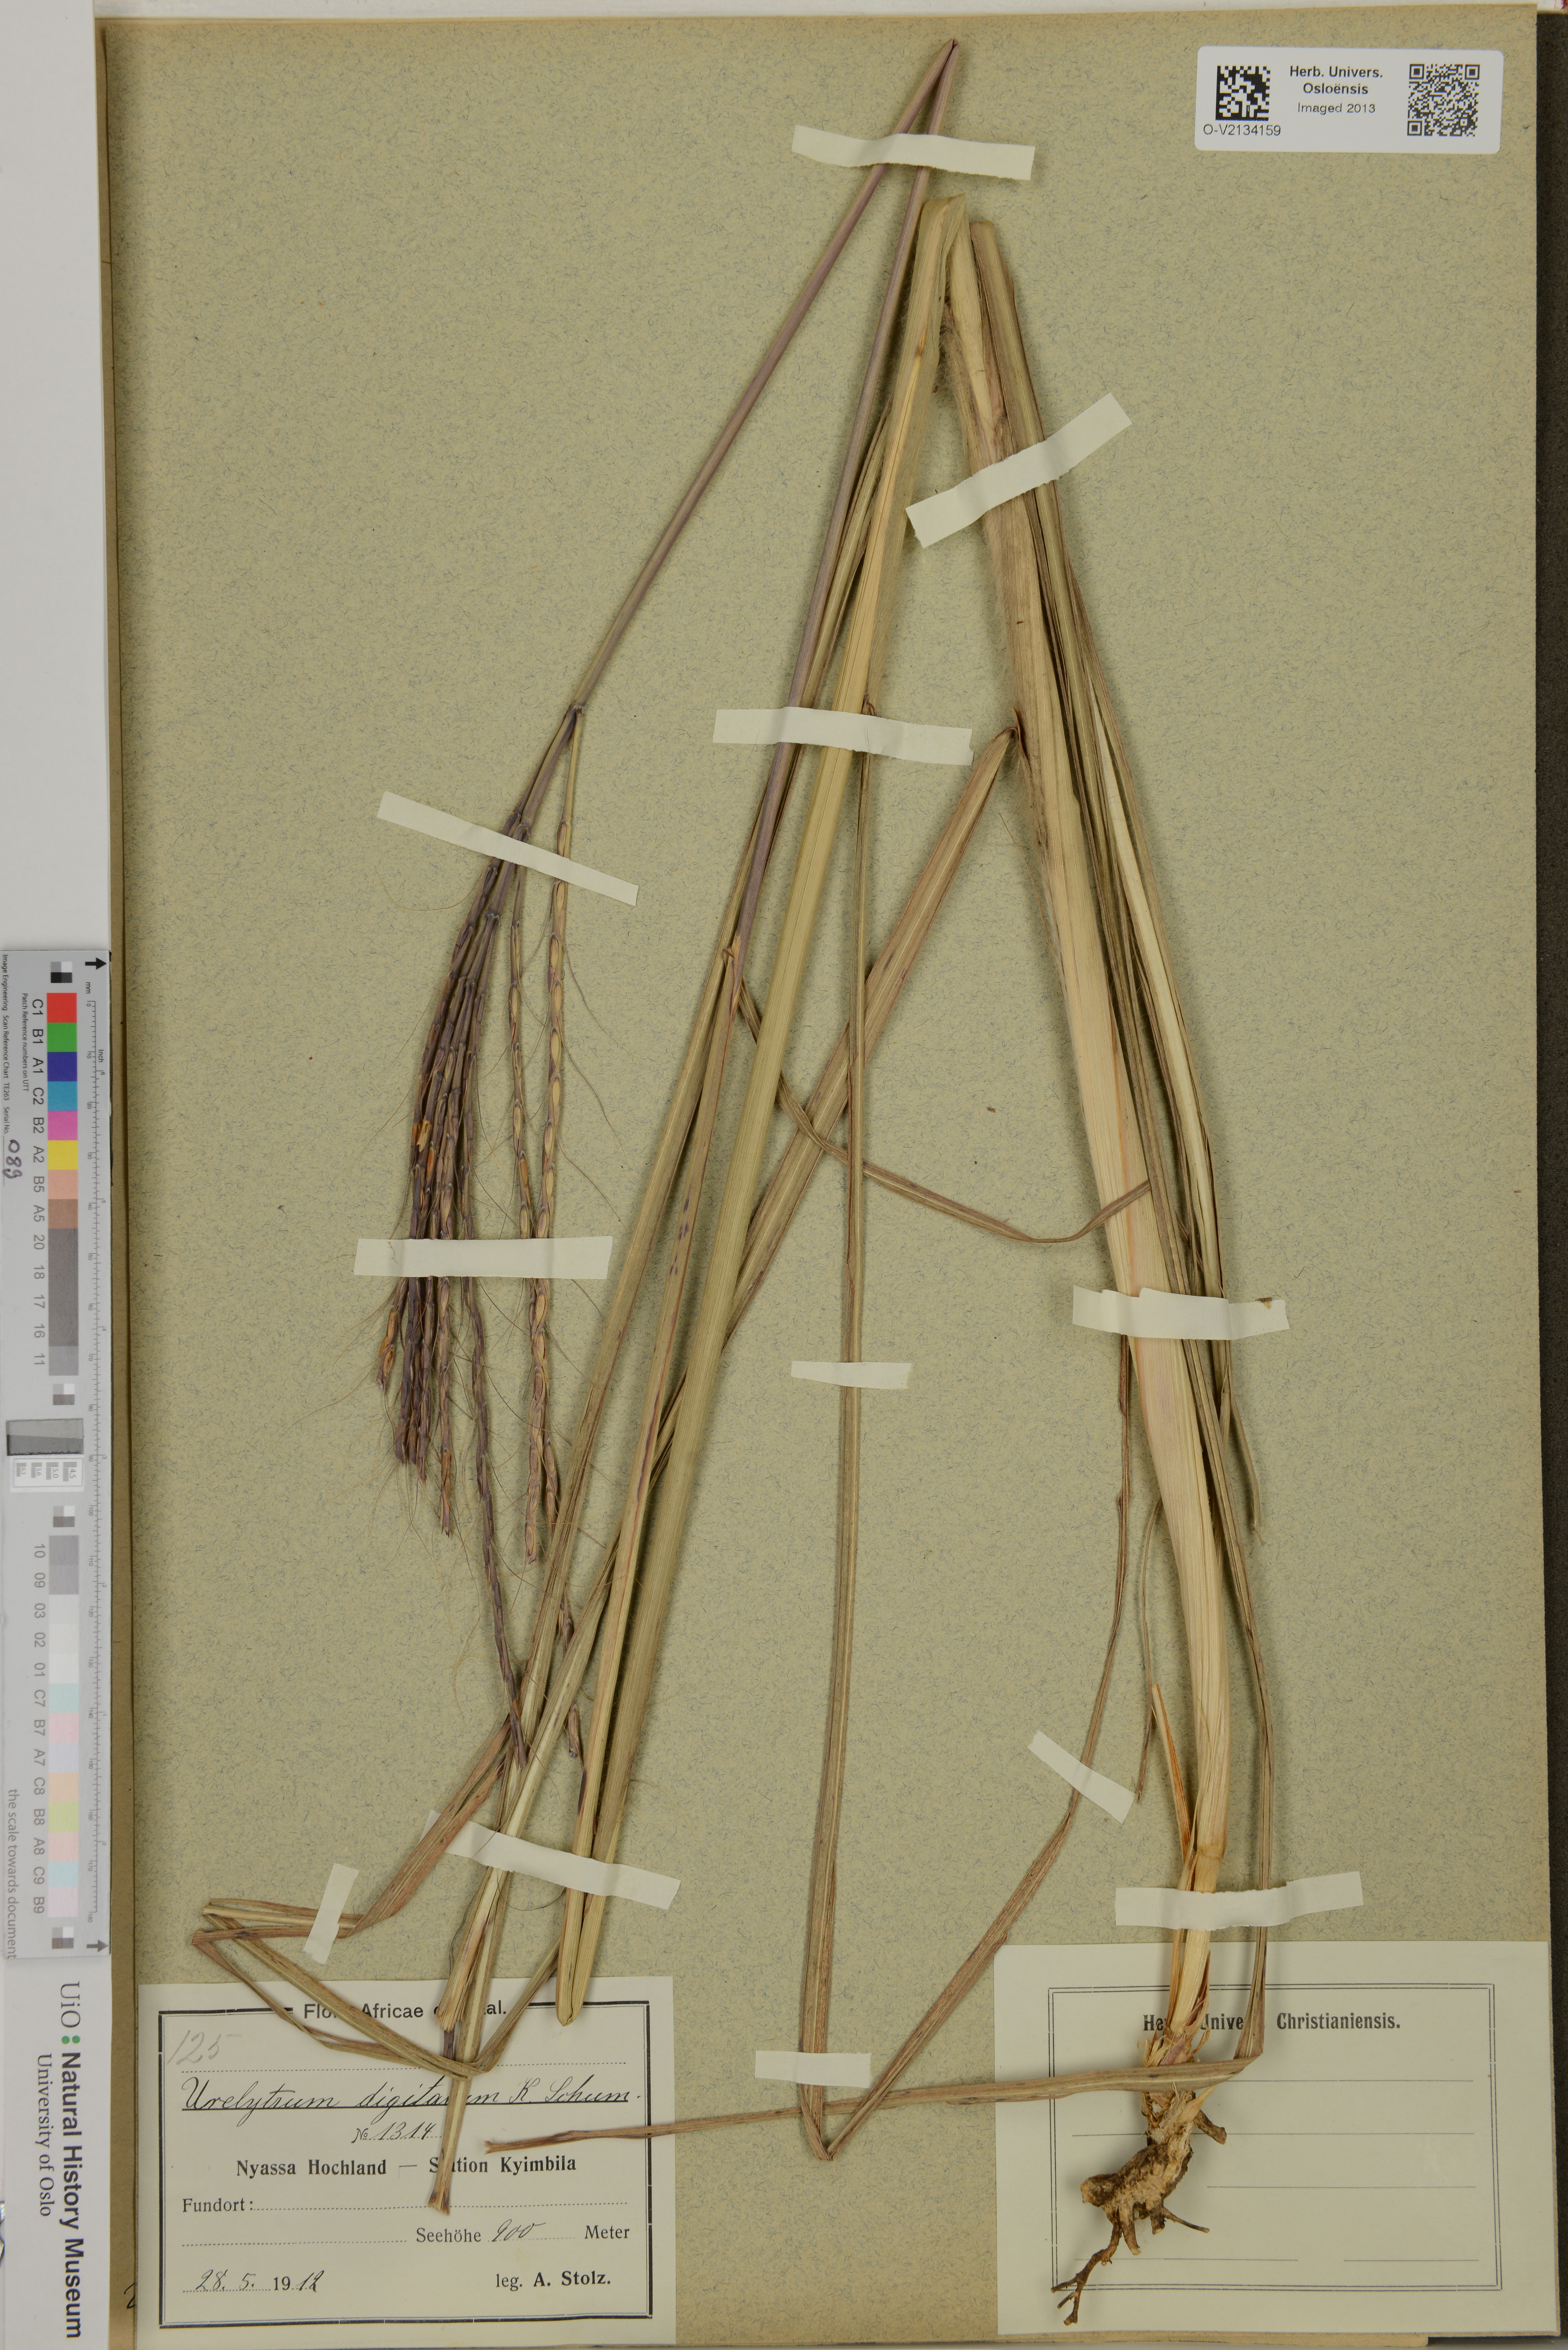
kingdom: Plantae
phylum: Tracheophyta
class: Liliopsida
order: Poales
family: Poaceae
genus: Urelytrum
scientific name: Urelytrum digitatum
